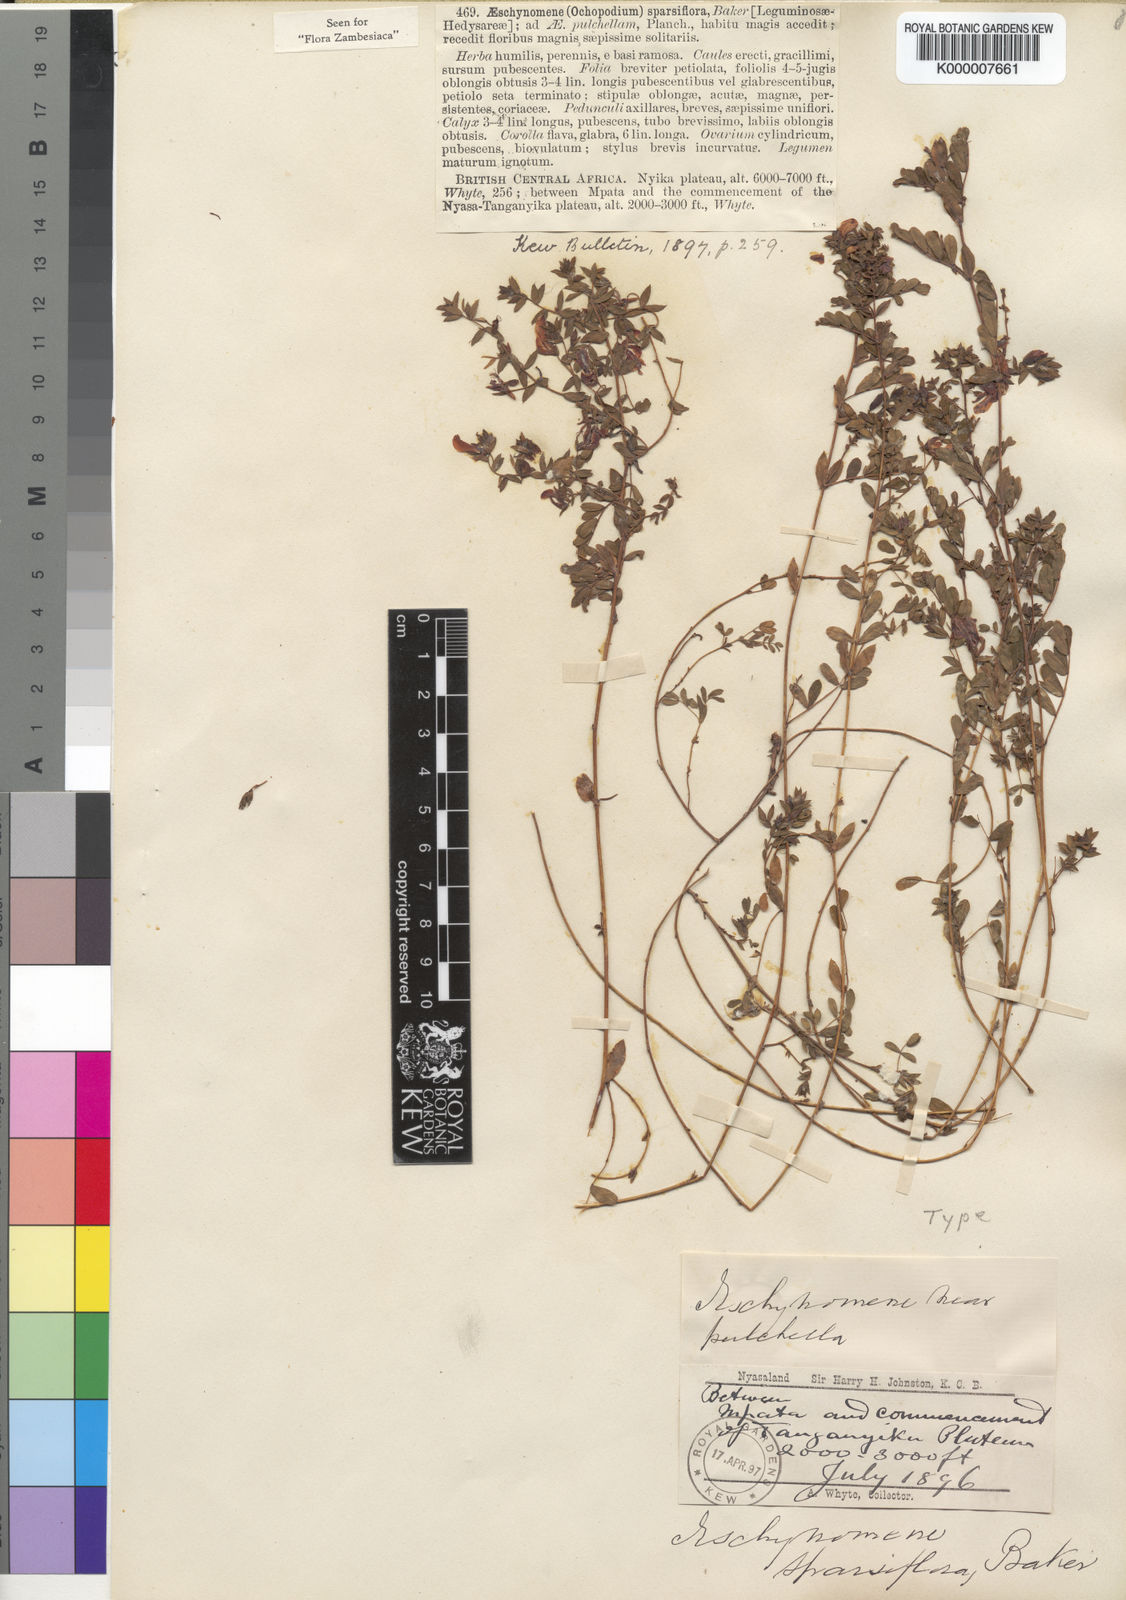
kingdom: Plantae
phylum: Tracheophyta
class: Magnoliopsida
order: Fabales
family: Fabaceae
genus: Aeschynomene
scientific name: Aeschynomene sparsiflora
